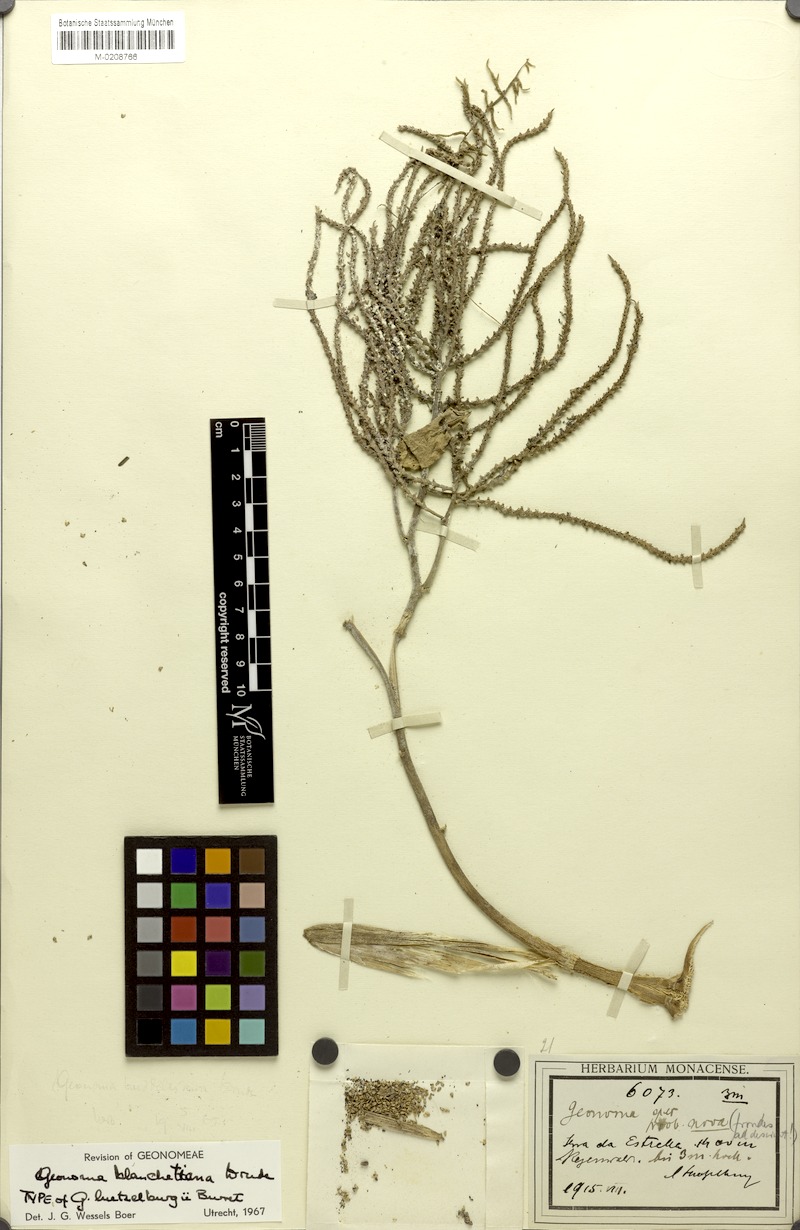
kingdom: Plantae
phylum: Tracheophyta
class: Liliopsida
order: Arecales
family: Arecaceae
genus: Geonoma
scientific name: Geonoma pohliana
